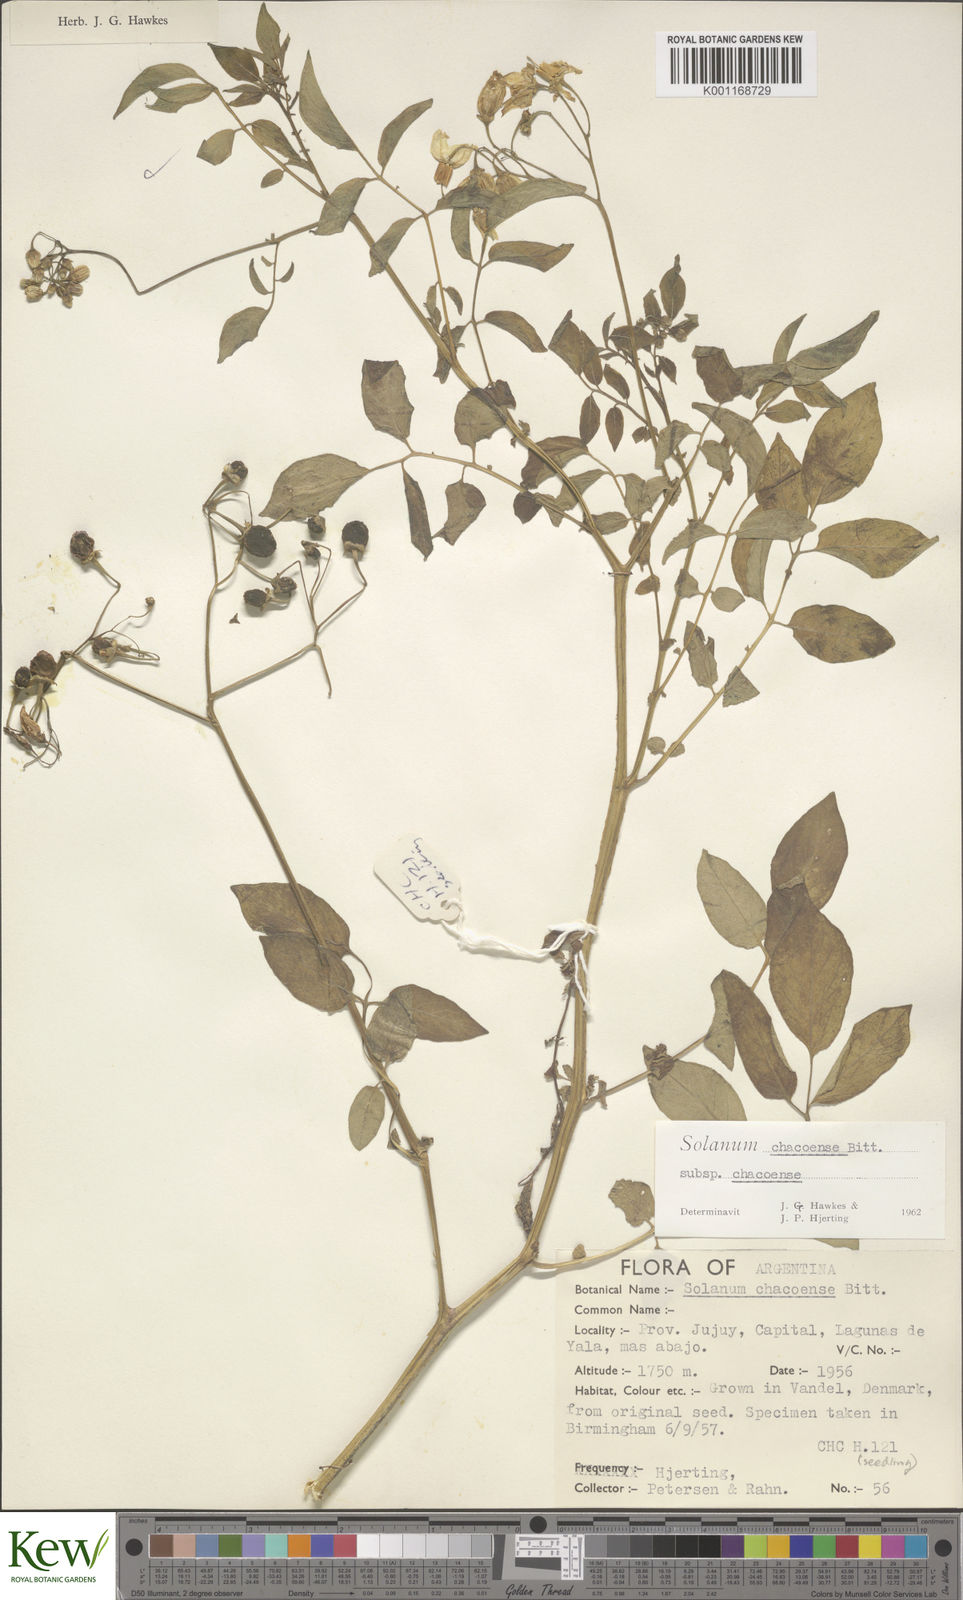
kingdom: Plantae
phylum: Tracheophyta
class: Magnoliopsida
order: Solanales
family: Solanaceae
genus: Solanum
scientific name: Solanum chacoense
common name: Chaco potato
